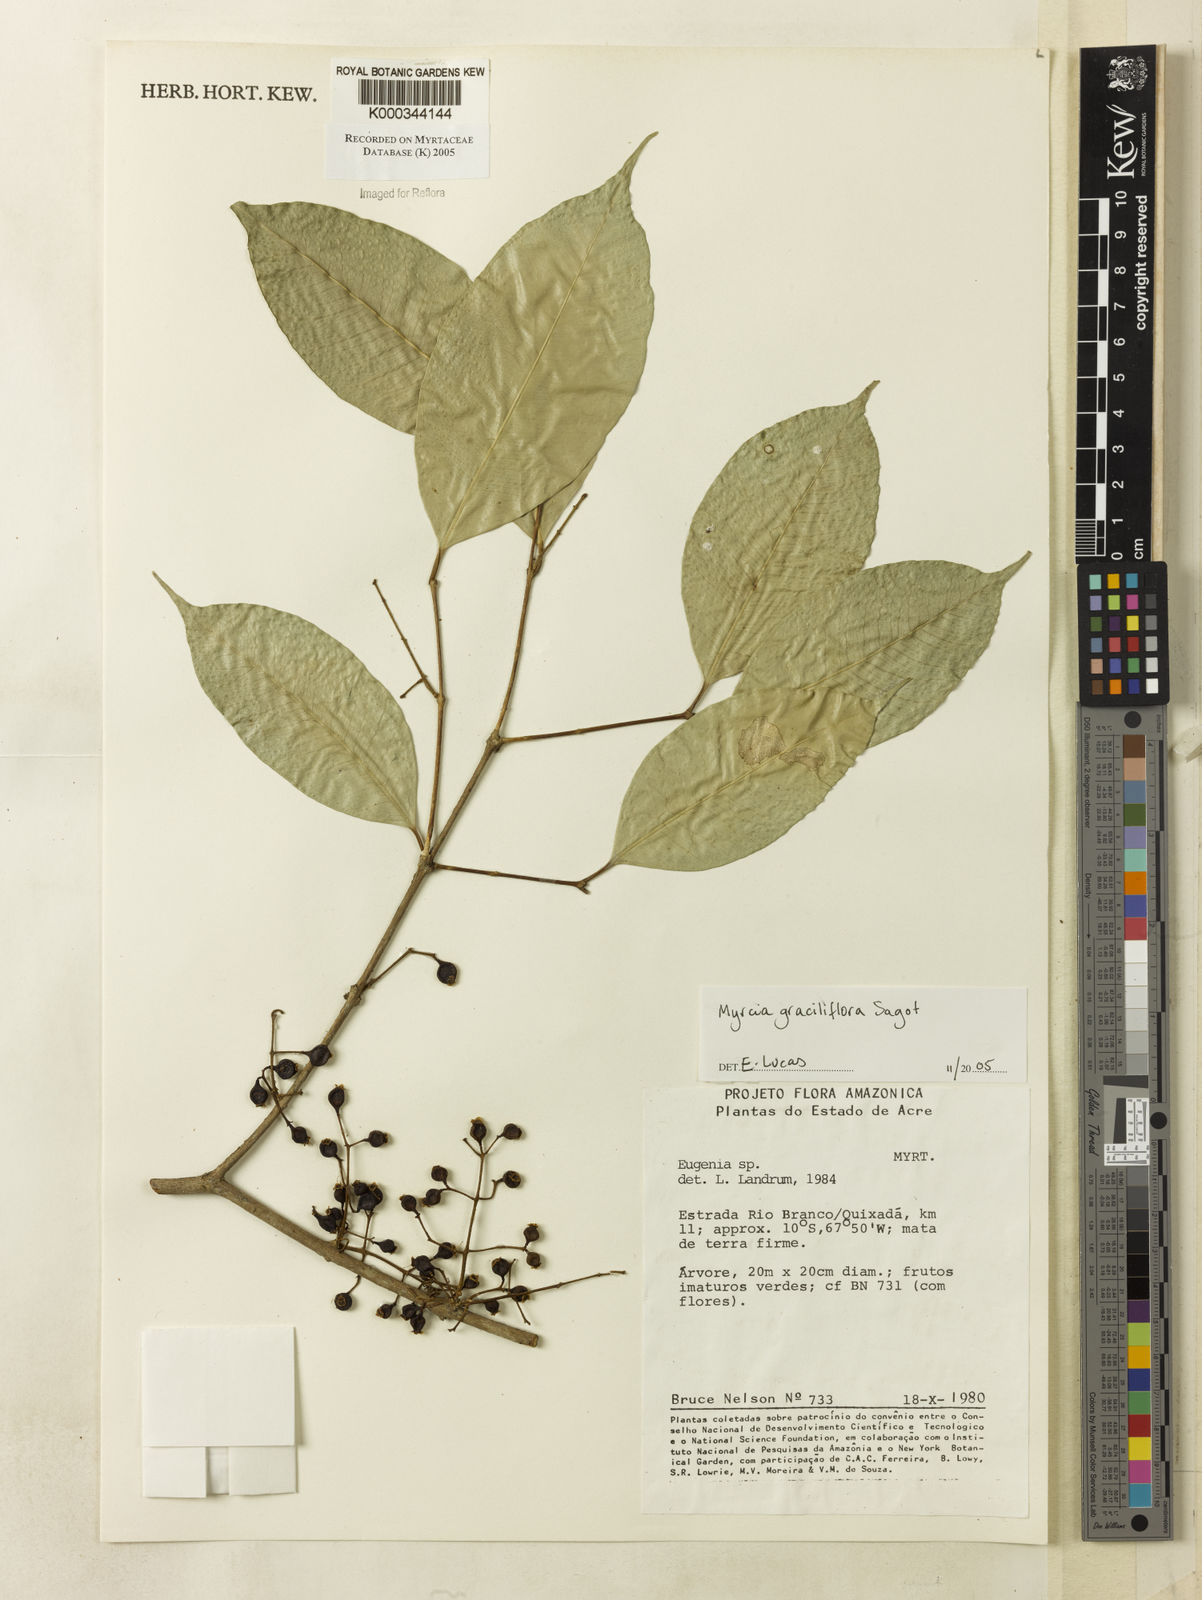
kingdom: Plantae
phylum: Tracheophyta
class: Magnoliopsida
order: Myrtales
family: Myrtaceae
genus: Myrcia
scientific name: Myrcia graciliflora
